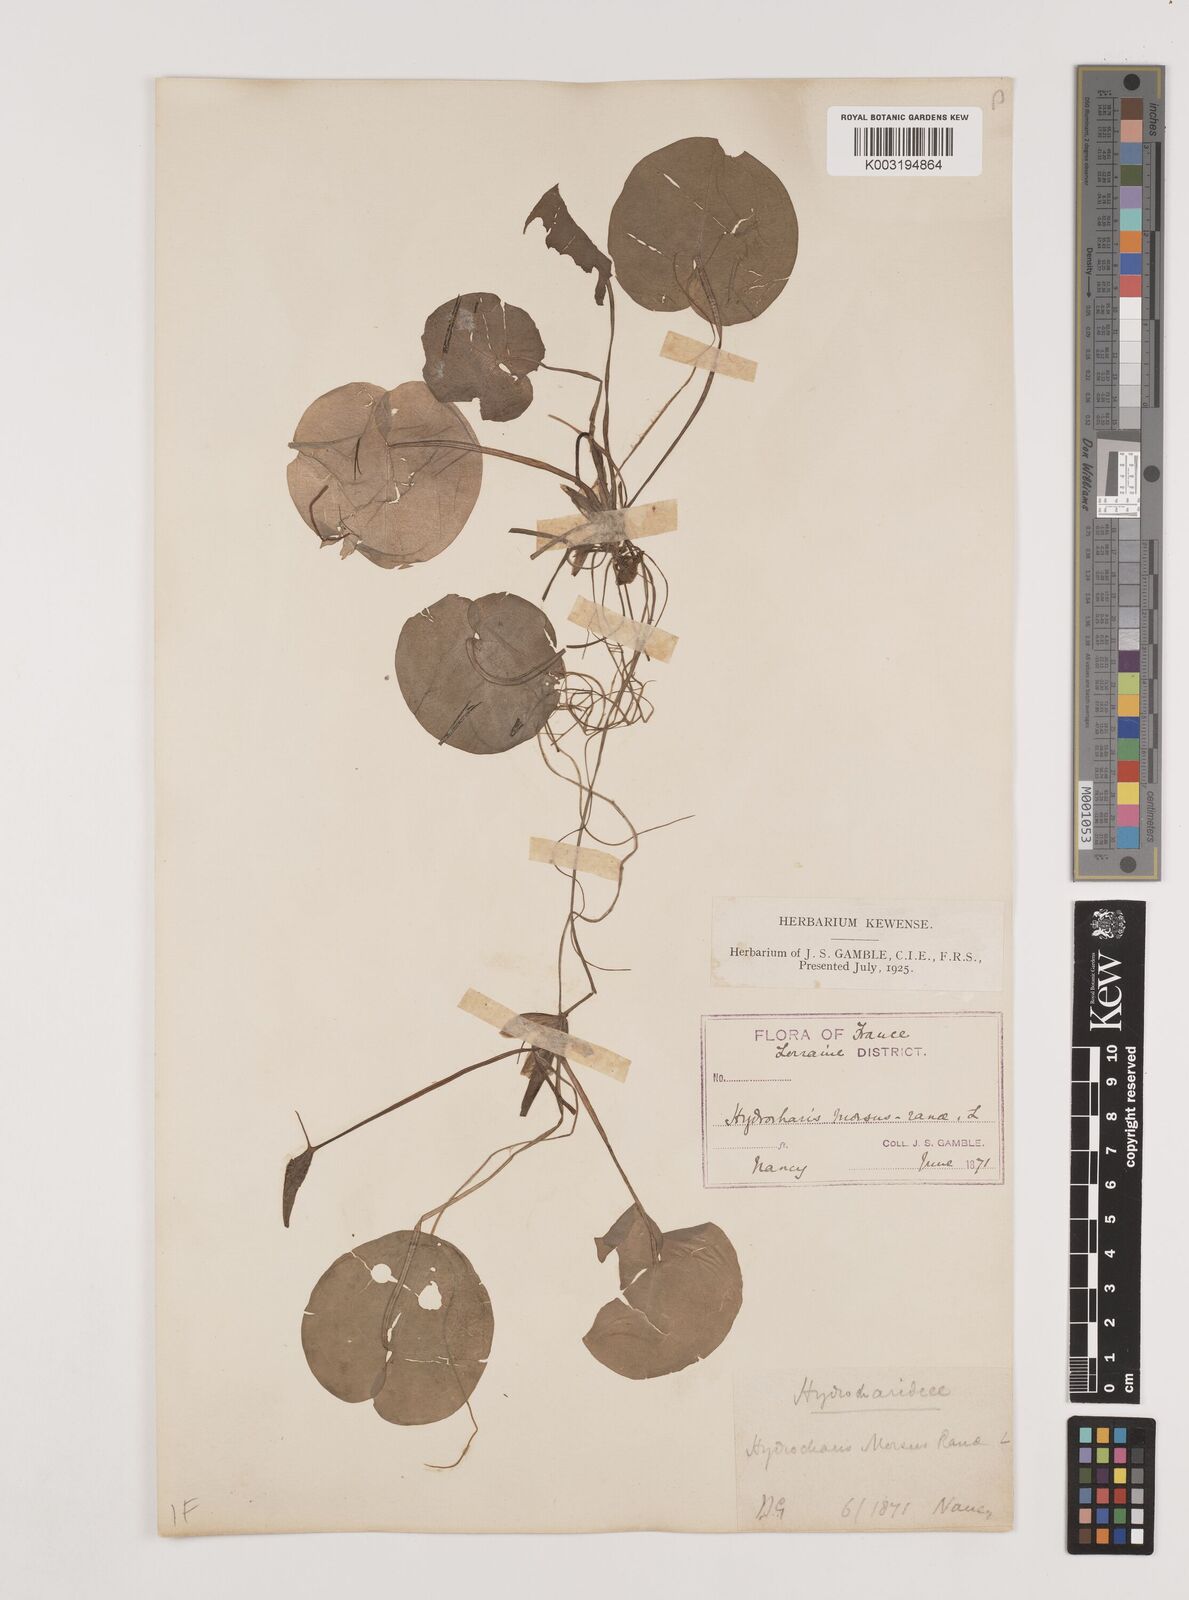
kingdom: Plantae
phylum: Tracheophyta
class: Liliopsida
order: Alismatales
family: Hydrocharitaceae
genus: Hydrocharis
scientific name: Hydrocharis morsus-ranae
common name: Frogbit
